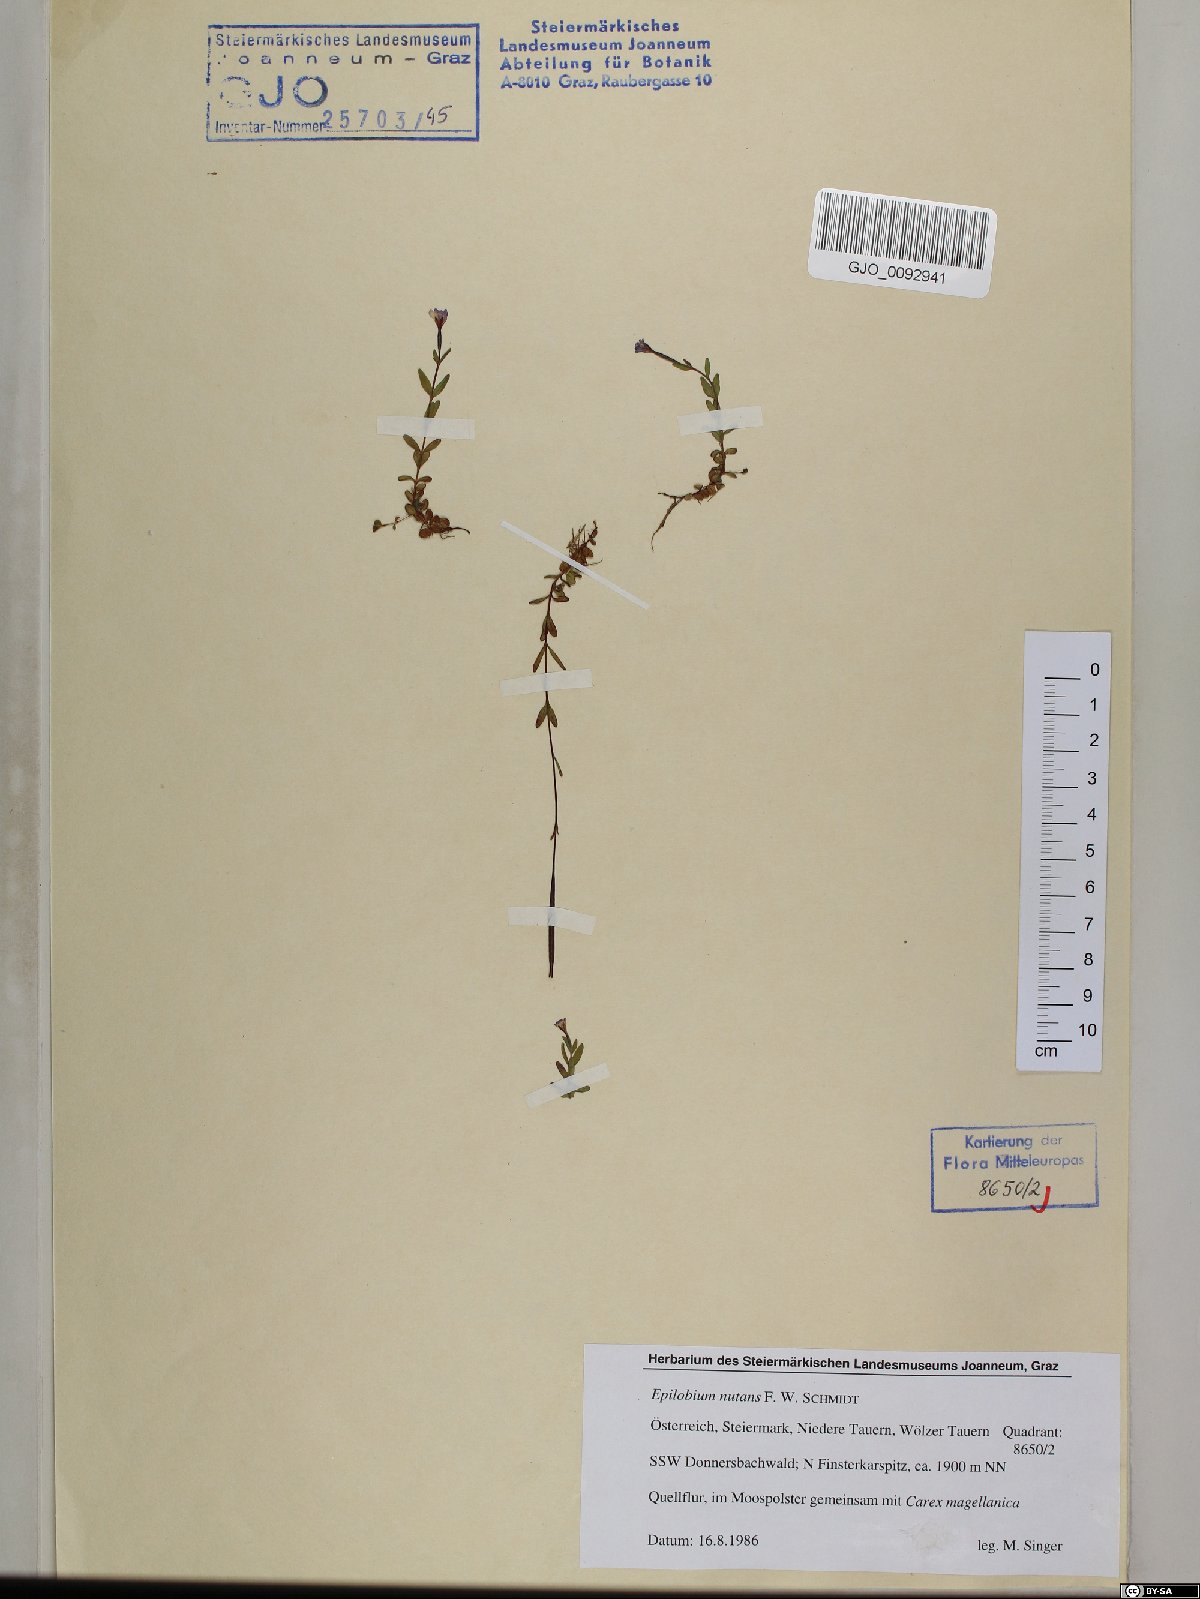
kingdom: Plantae
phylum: Tracheophyta
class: Magnoliopsida
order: Myrtales
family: Onagraceae
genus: Epilobium
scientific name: Epilobium nutans
